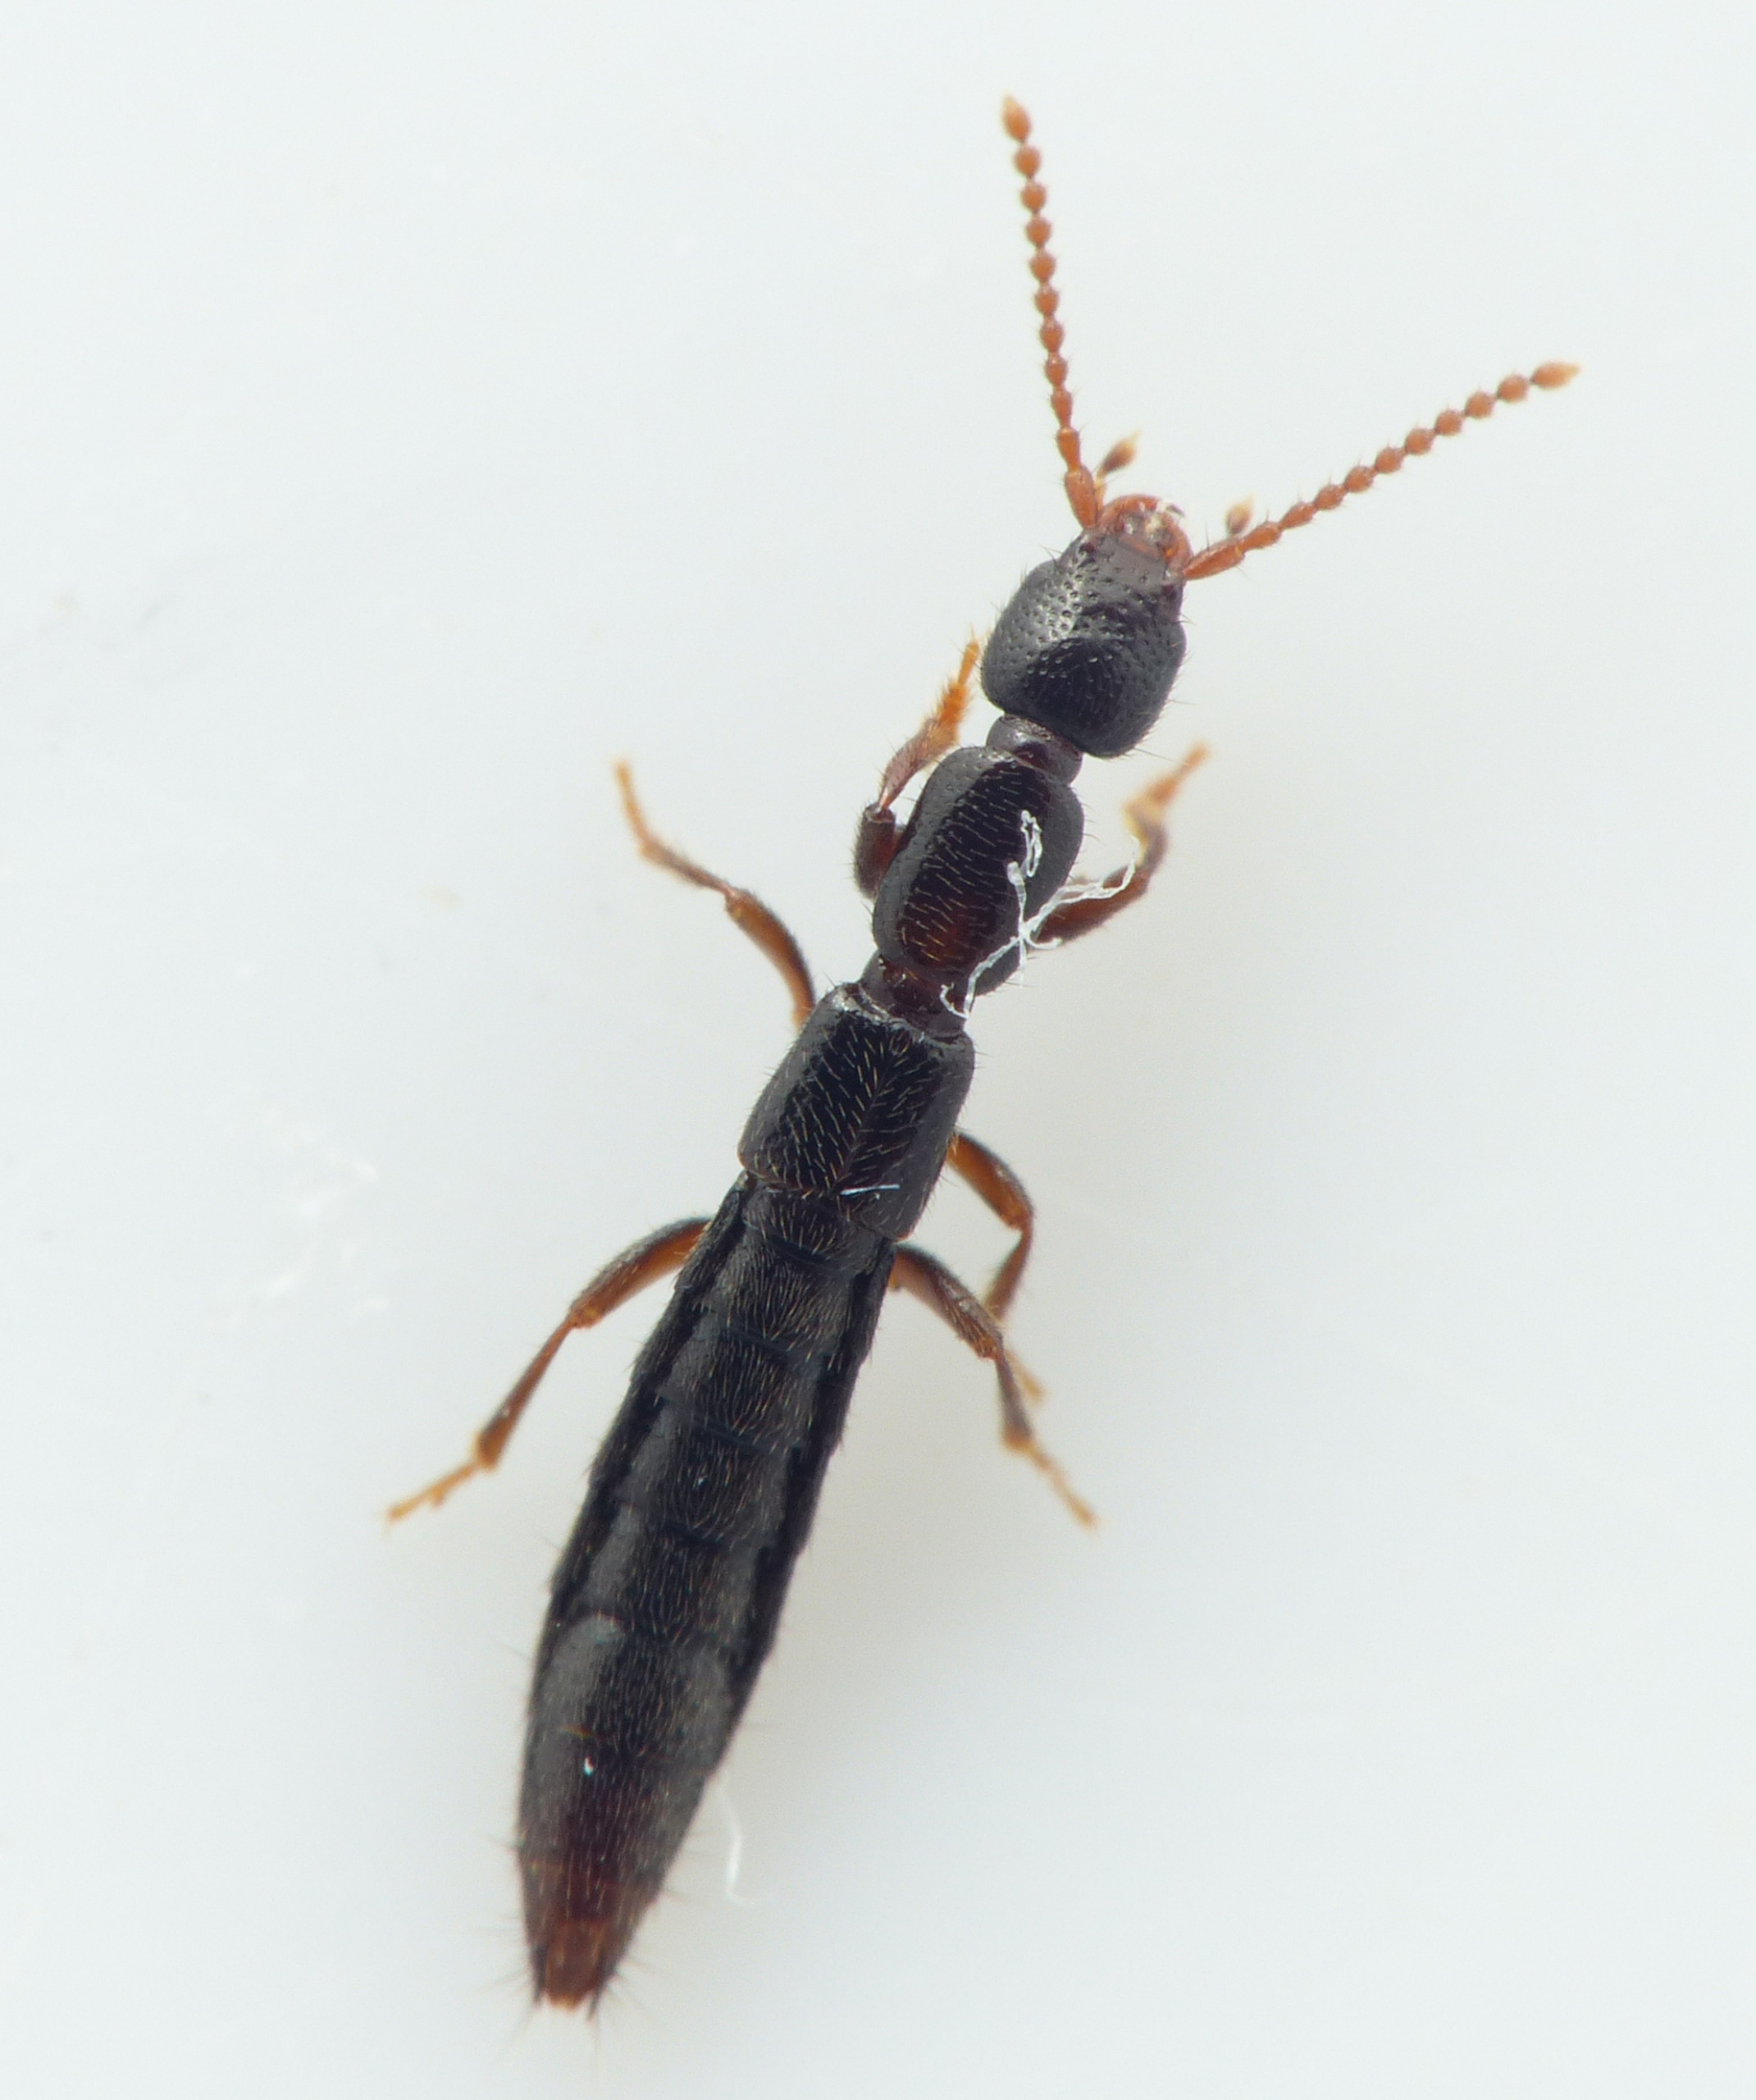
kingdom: Animalia
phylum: Arthropoda
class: Insecta
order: Coleoptera
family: Staphylinidae
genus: Lathrobium
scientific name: Lathrobium longulum
